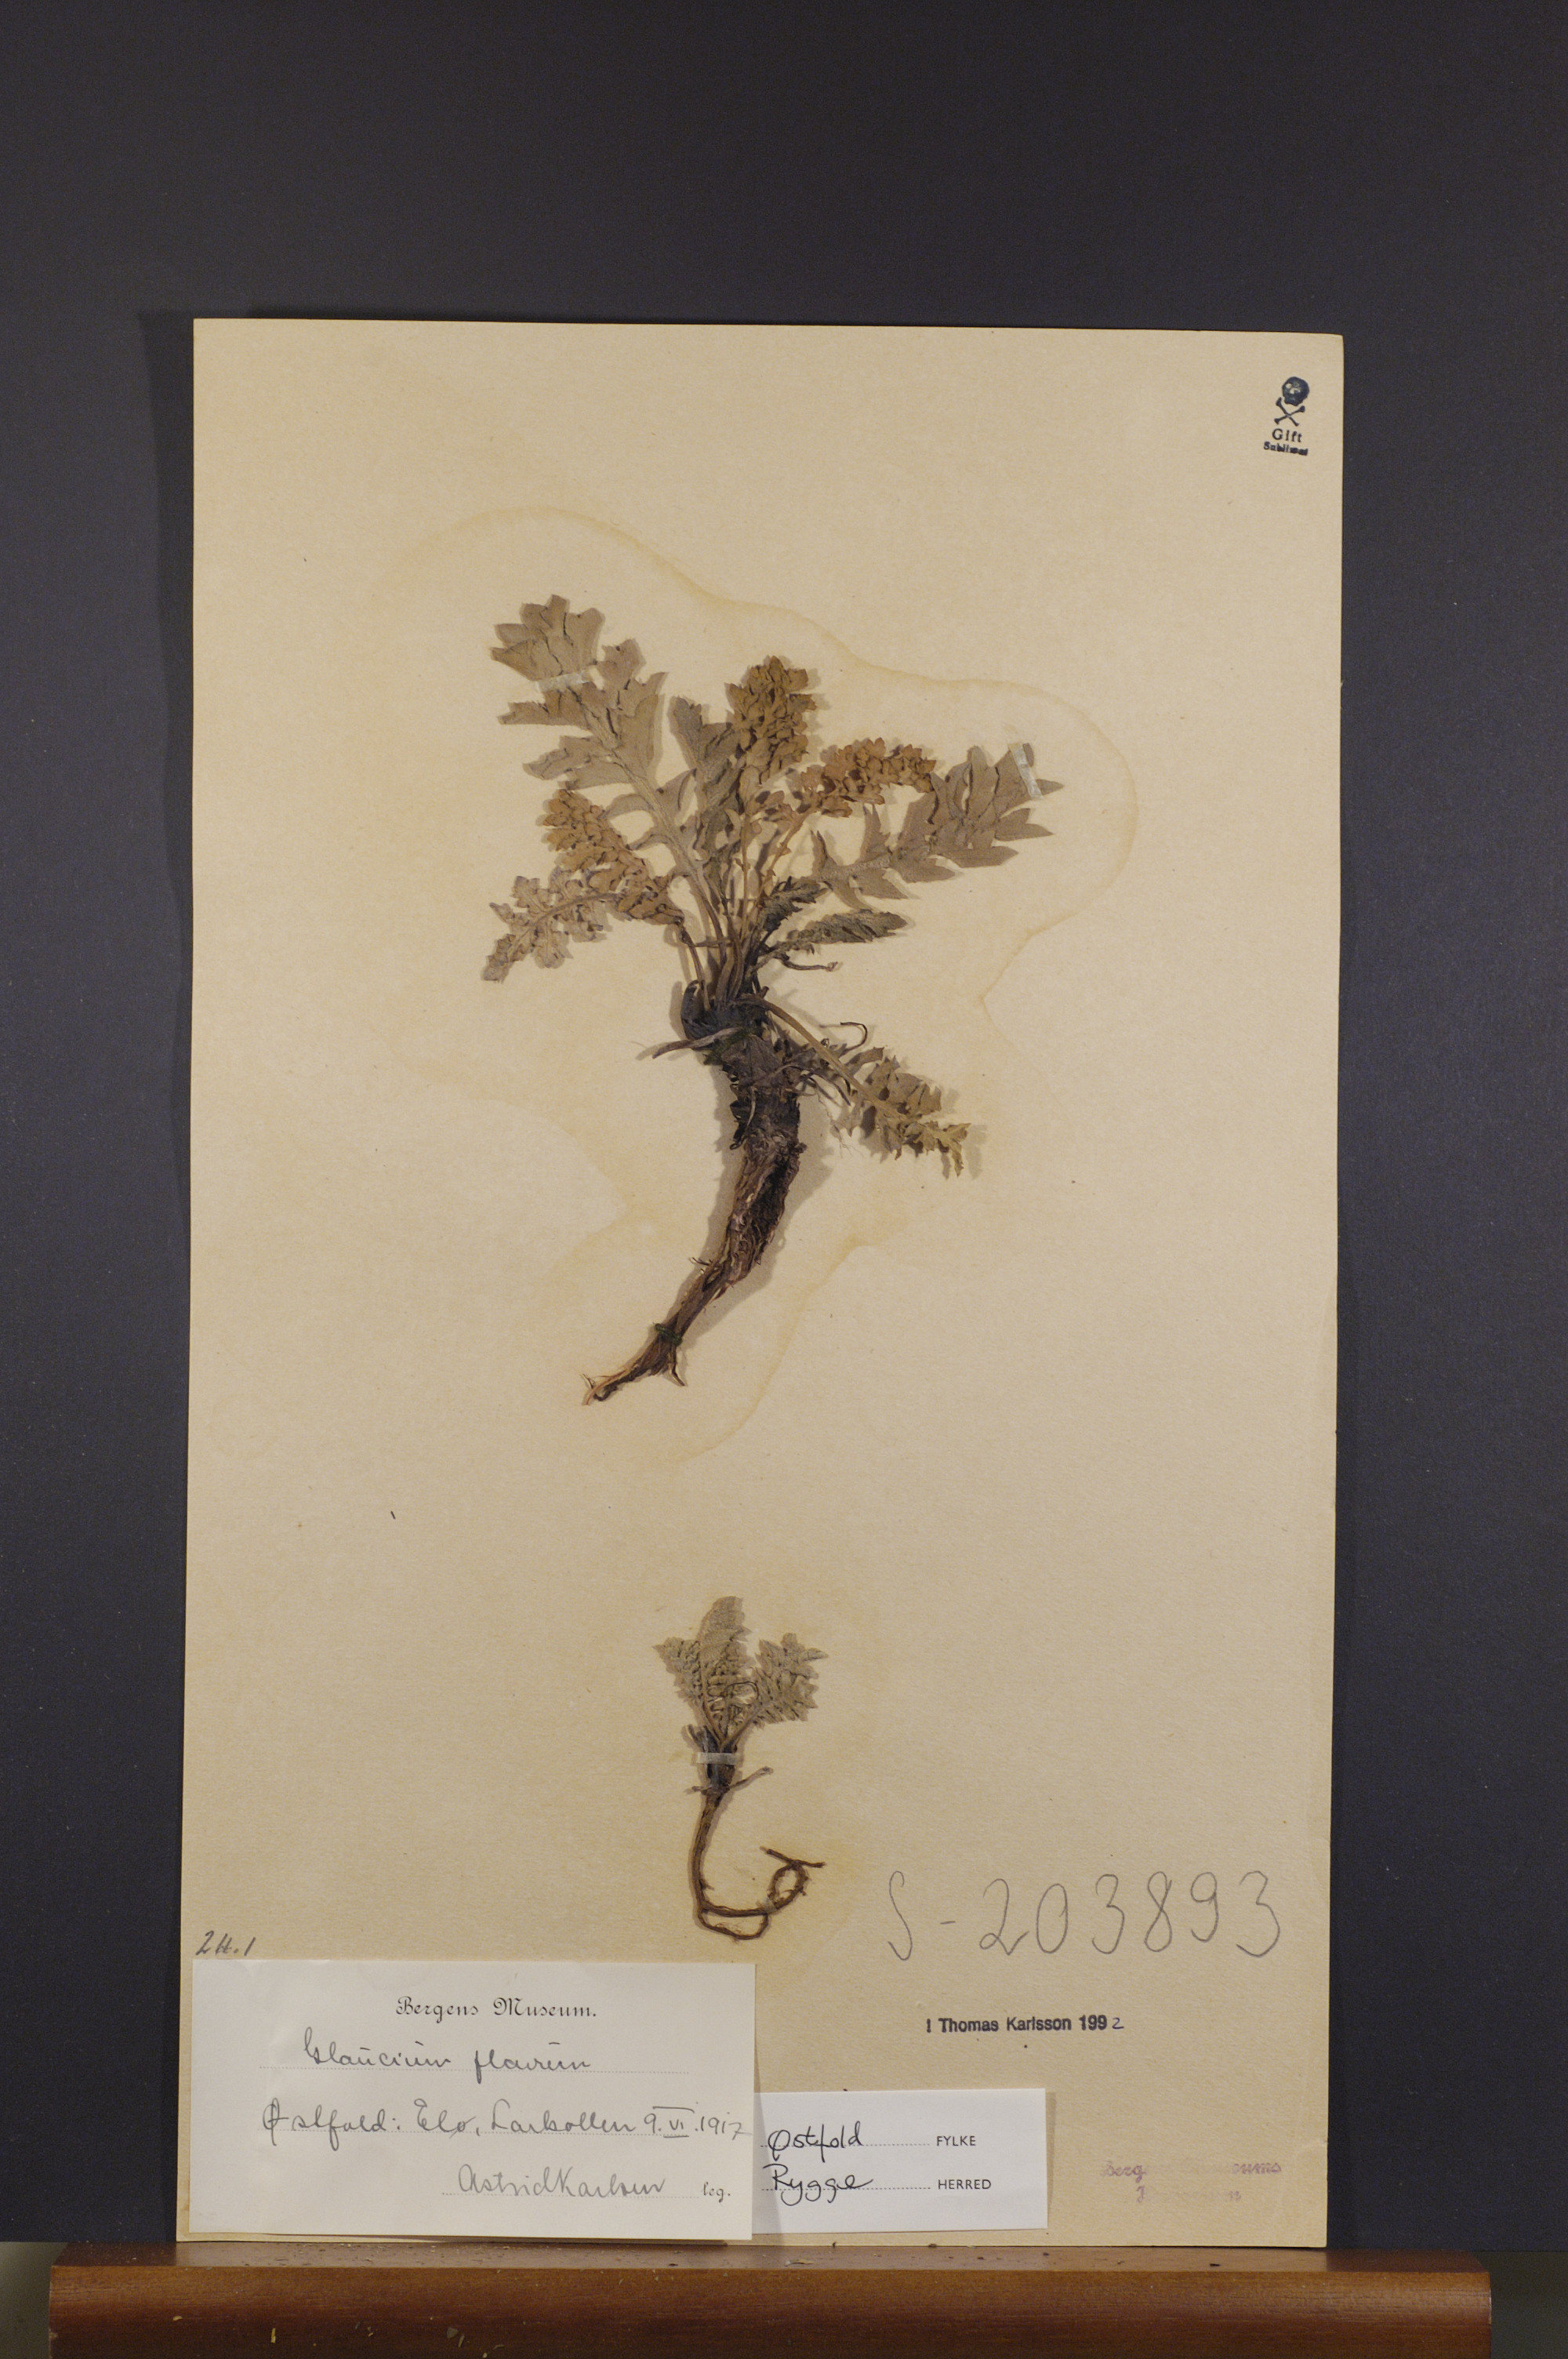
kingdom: Plantae
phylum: Tracheophyta
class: Magnoliopsida
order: Ranunculales
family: Papaveraceae
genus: Glaucium
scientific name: Glaucium flavum
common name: Yellow horned-poppy
